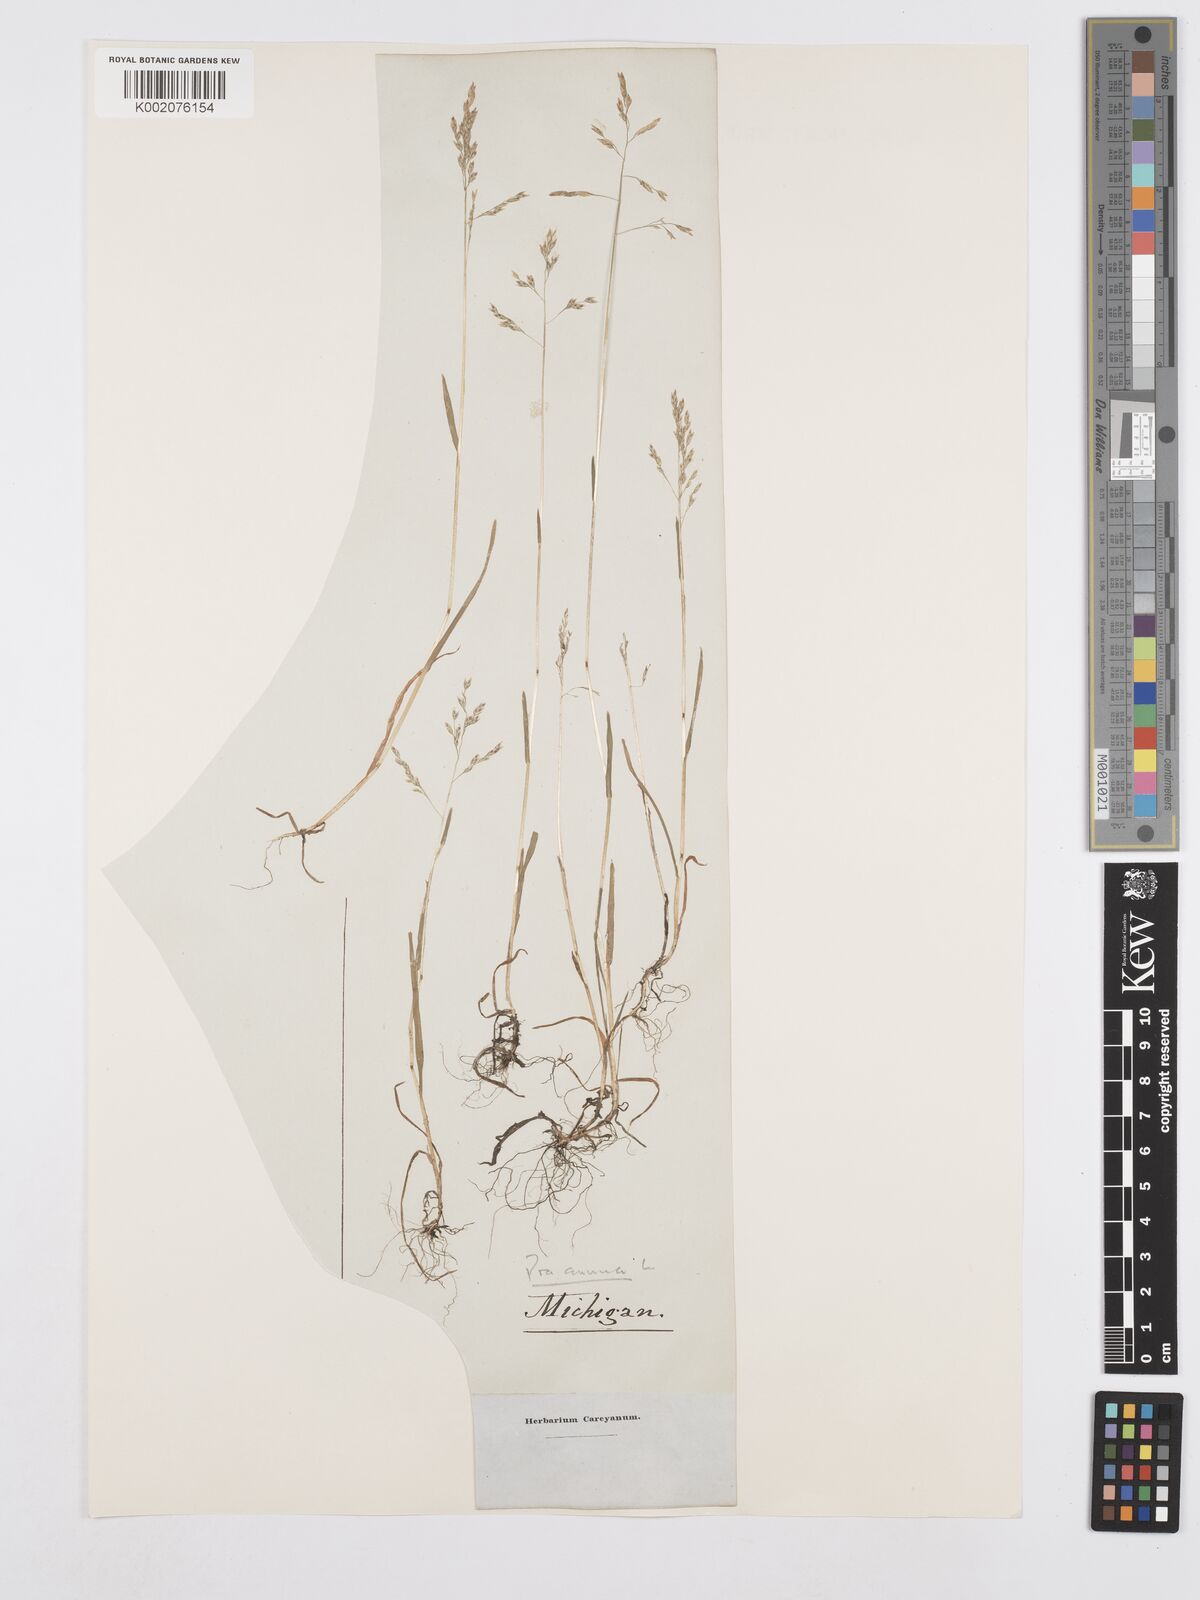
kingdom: Plantae
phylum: Tracheophyta
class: Liliopsida
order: Poales
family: Poaceae
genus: Poa
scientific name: Poa annua
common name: Annual bluegrass
